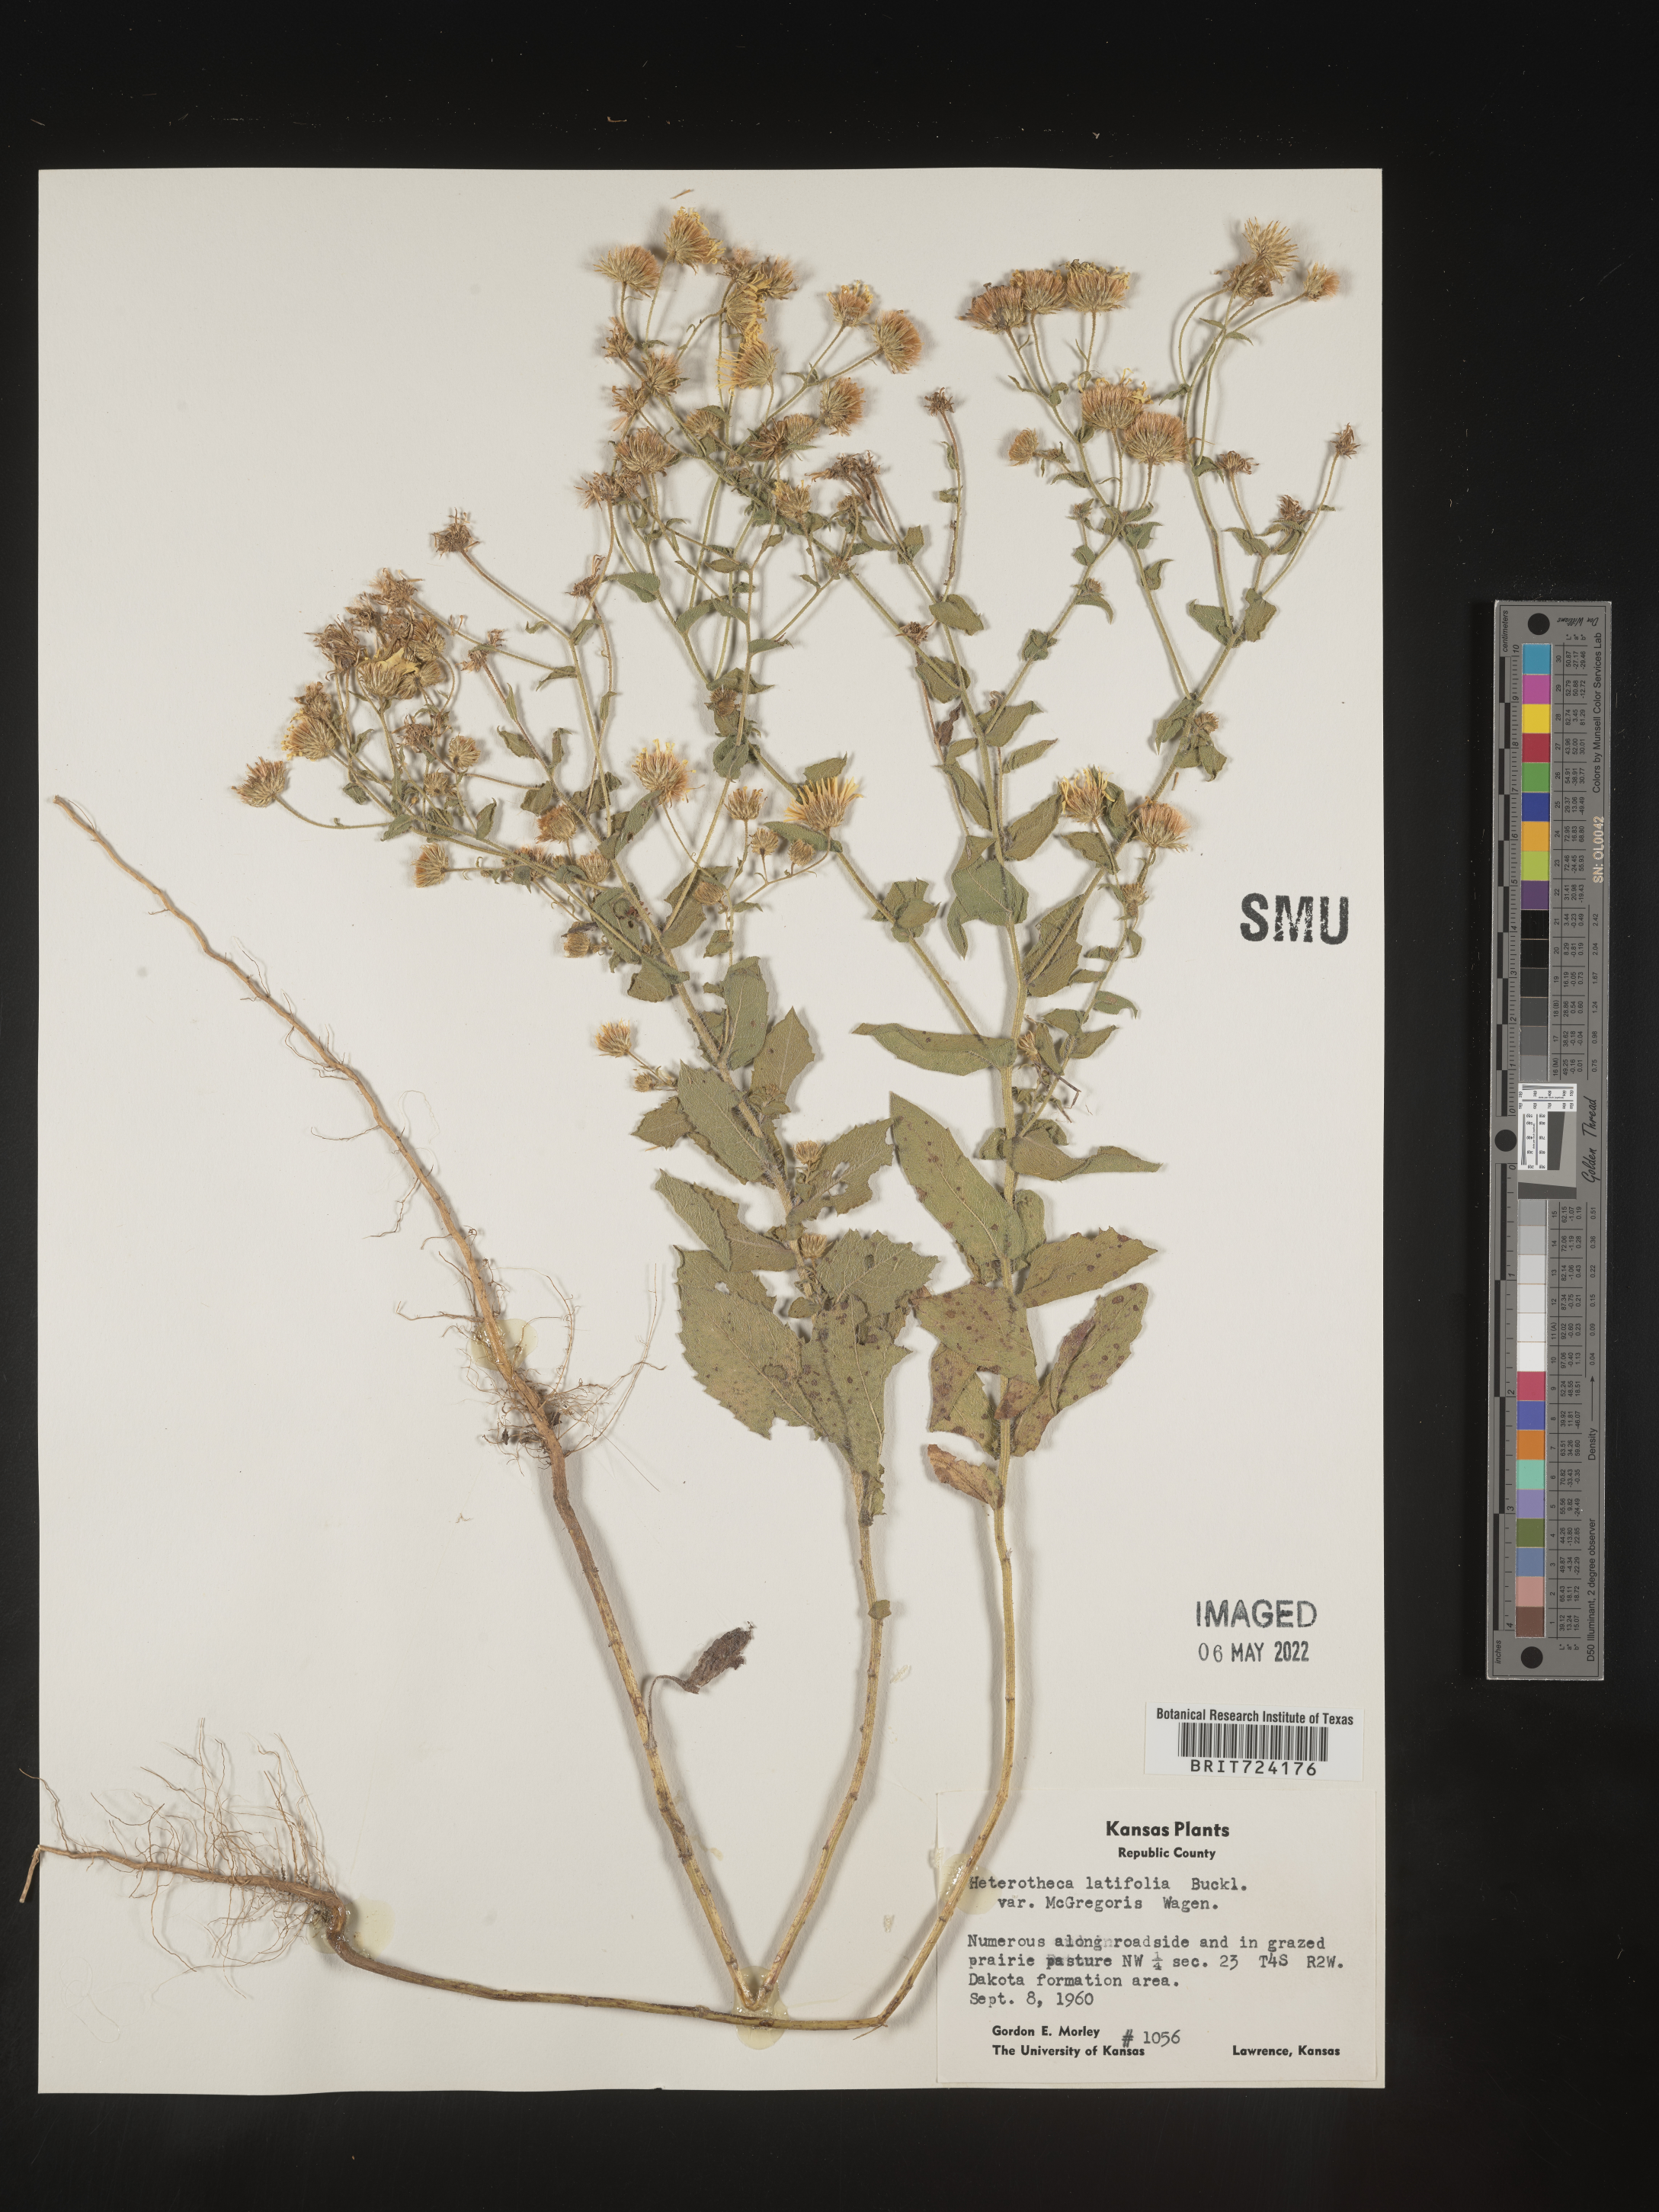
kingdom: Plantae
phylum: Tracheophyta
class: Magnoliopsida
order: Asterales
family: Asteraceae
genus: Heterotheca
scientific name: Heterotheca subaxillaris
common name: Camphorweed
